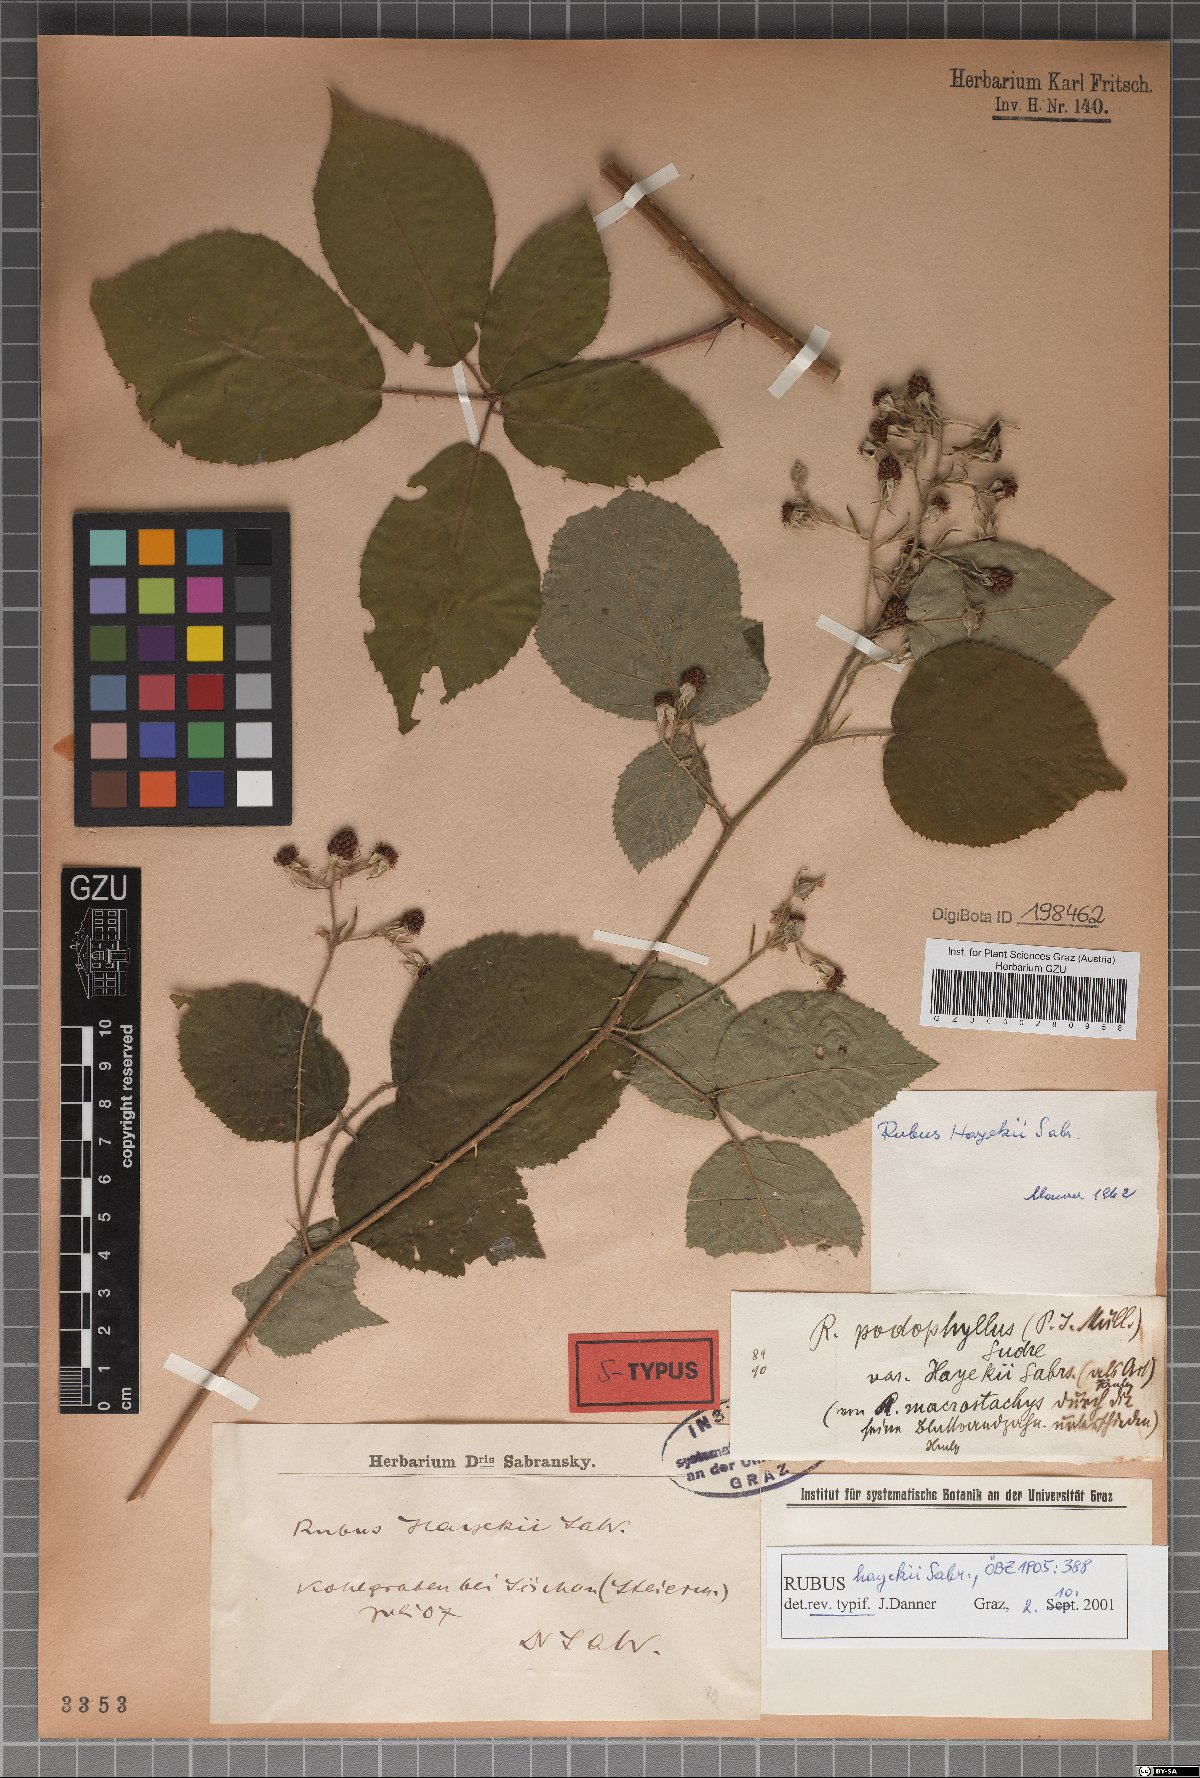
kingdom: Plantae
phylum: Tracheophyta
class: Magnoliopsida
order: Rosales
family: Rosaceae
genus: Rubus
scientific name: Rubus hayekii
